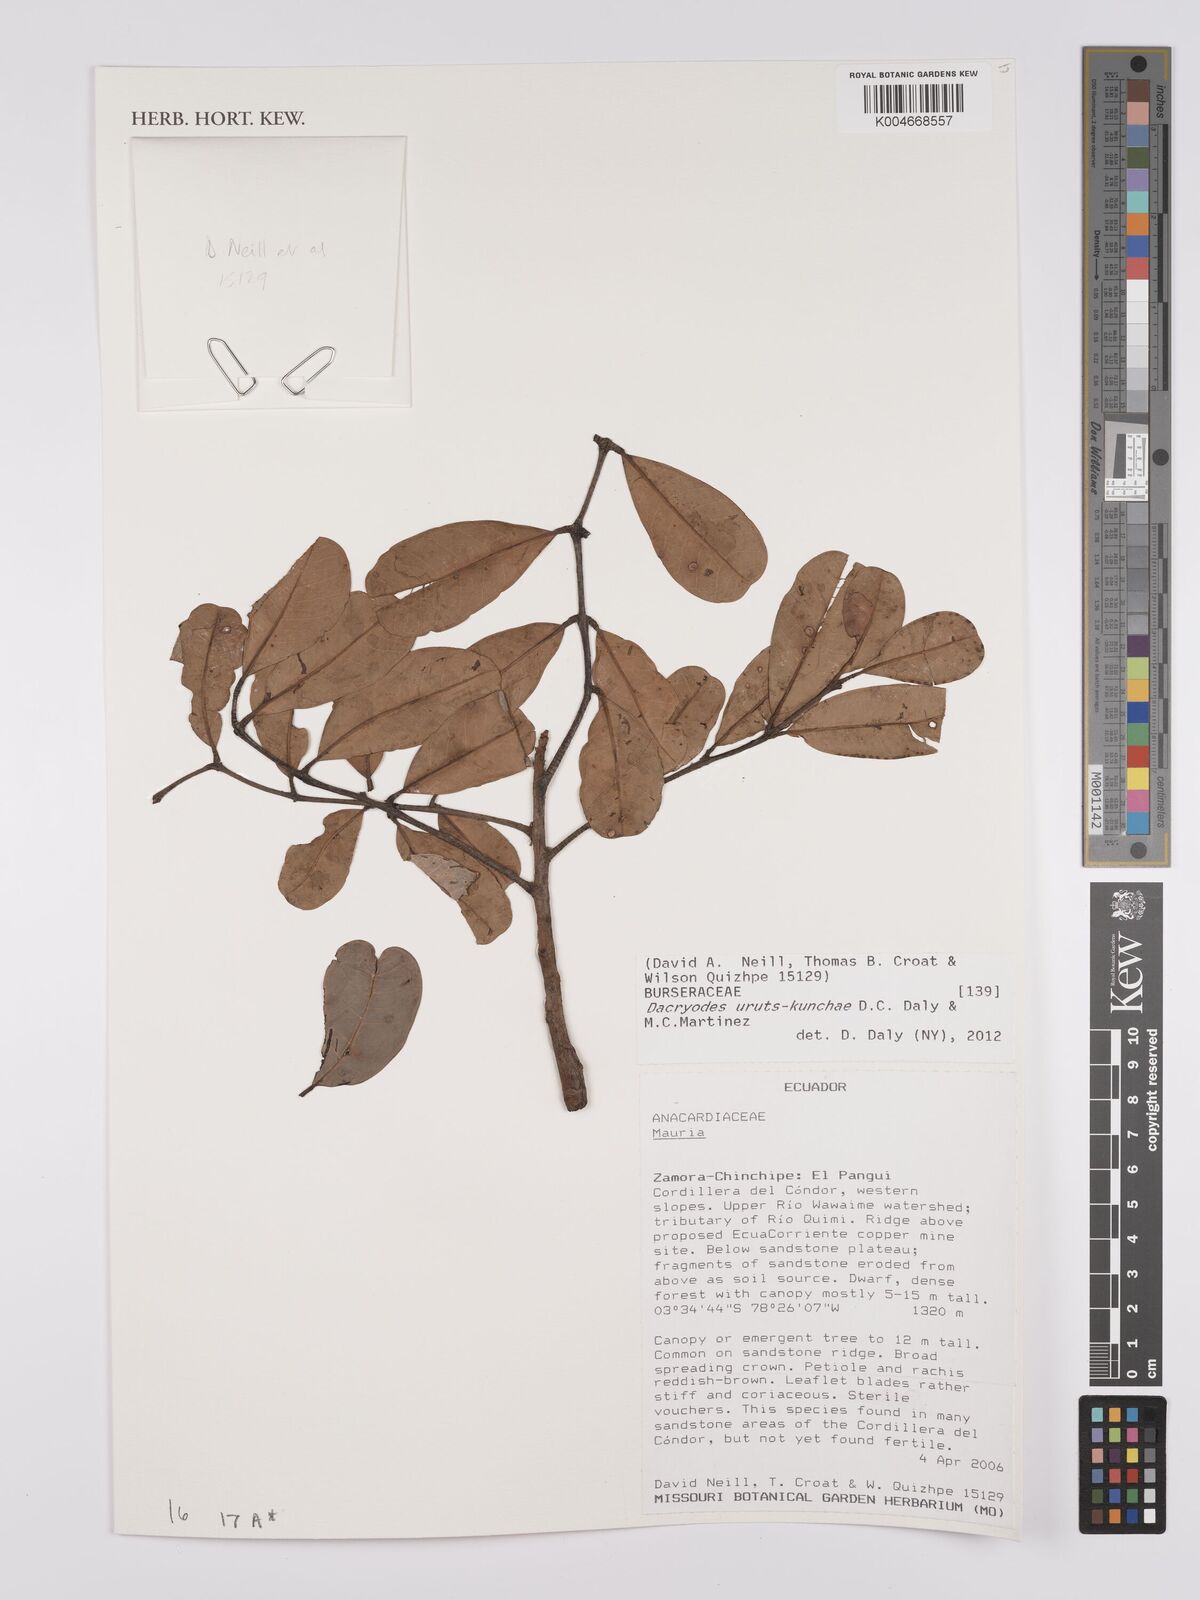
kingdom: Plantae
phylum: Tracheophyta
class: Magnoliopsida
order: Sapindales
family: Burseraceae
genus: Dacryodes
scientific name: Dacryodes uruts-kunchae
